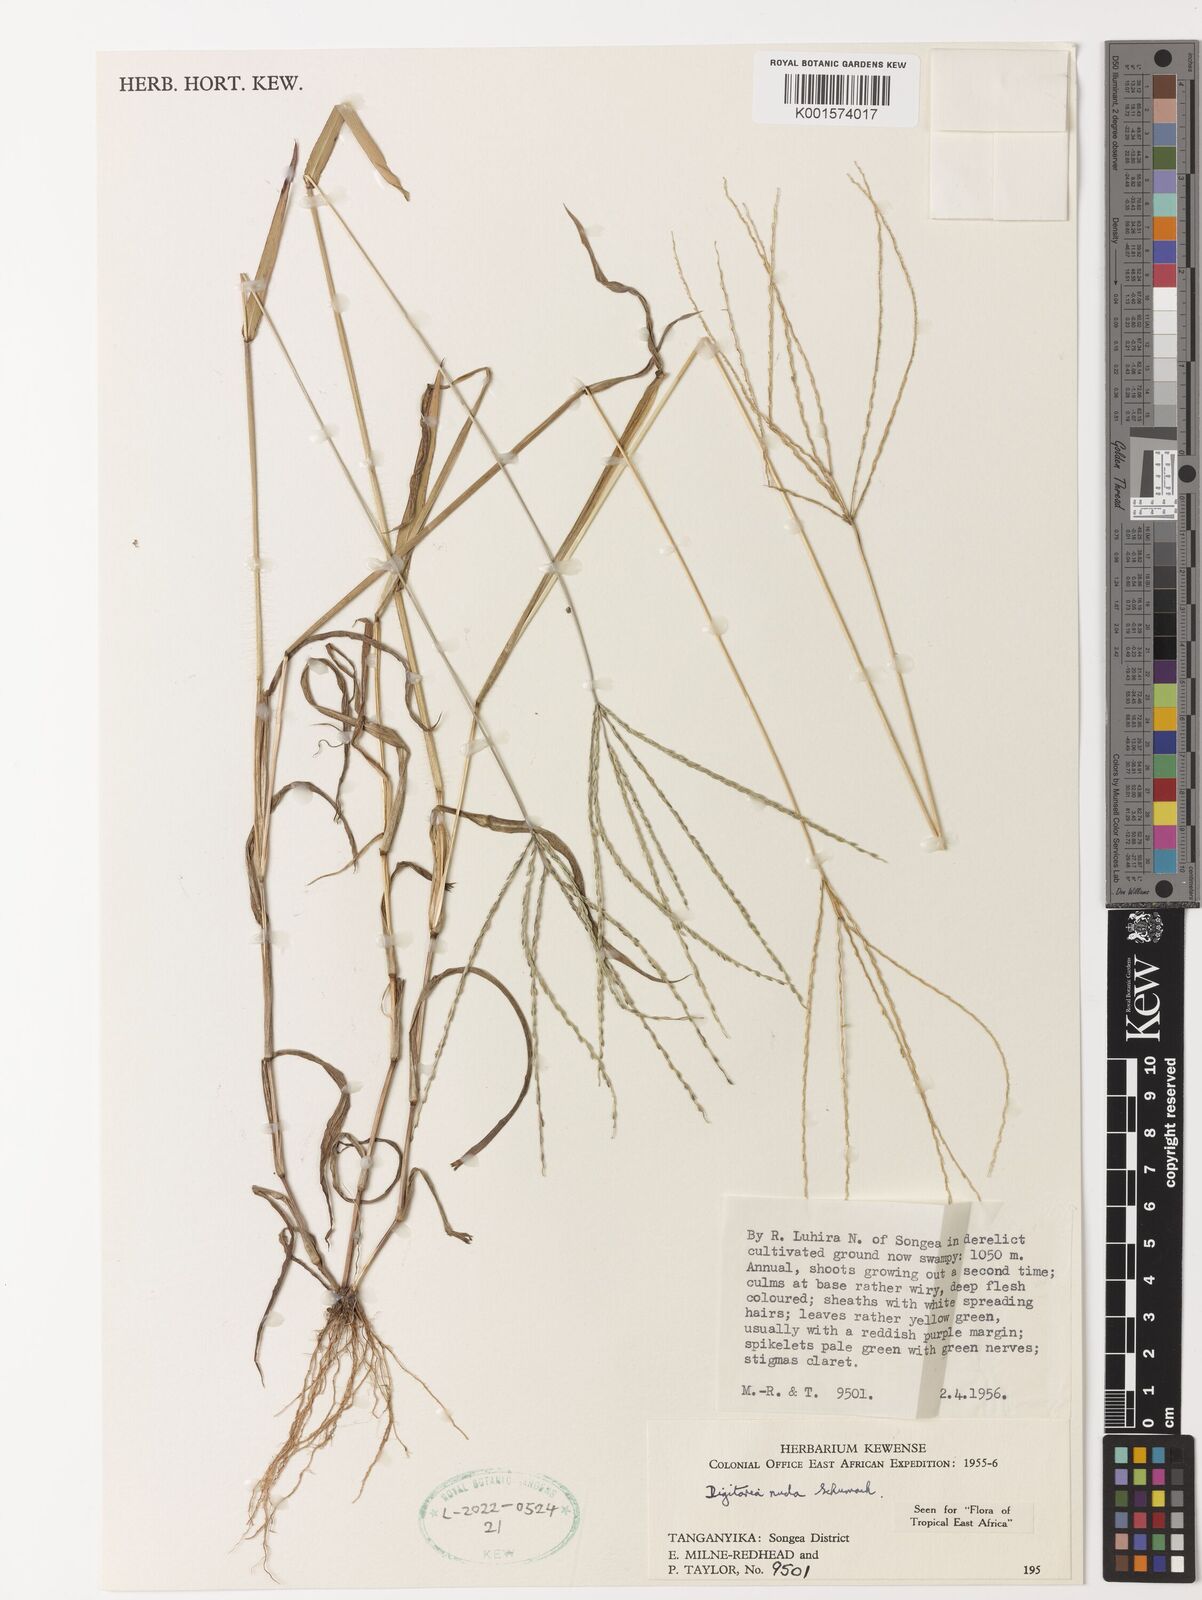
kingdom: Plantae
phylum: Tracheophyta
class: Liliopsida
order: Poales
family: Poaceae
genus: Digitaria
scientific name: Digitaria nuda
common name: Naked crabgrass
